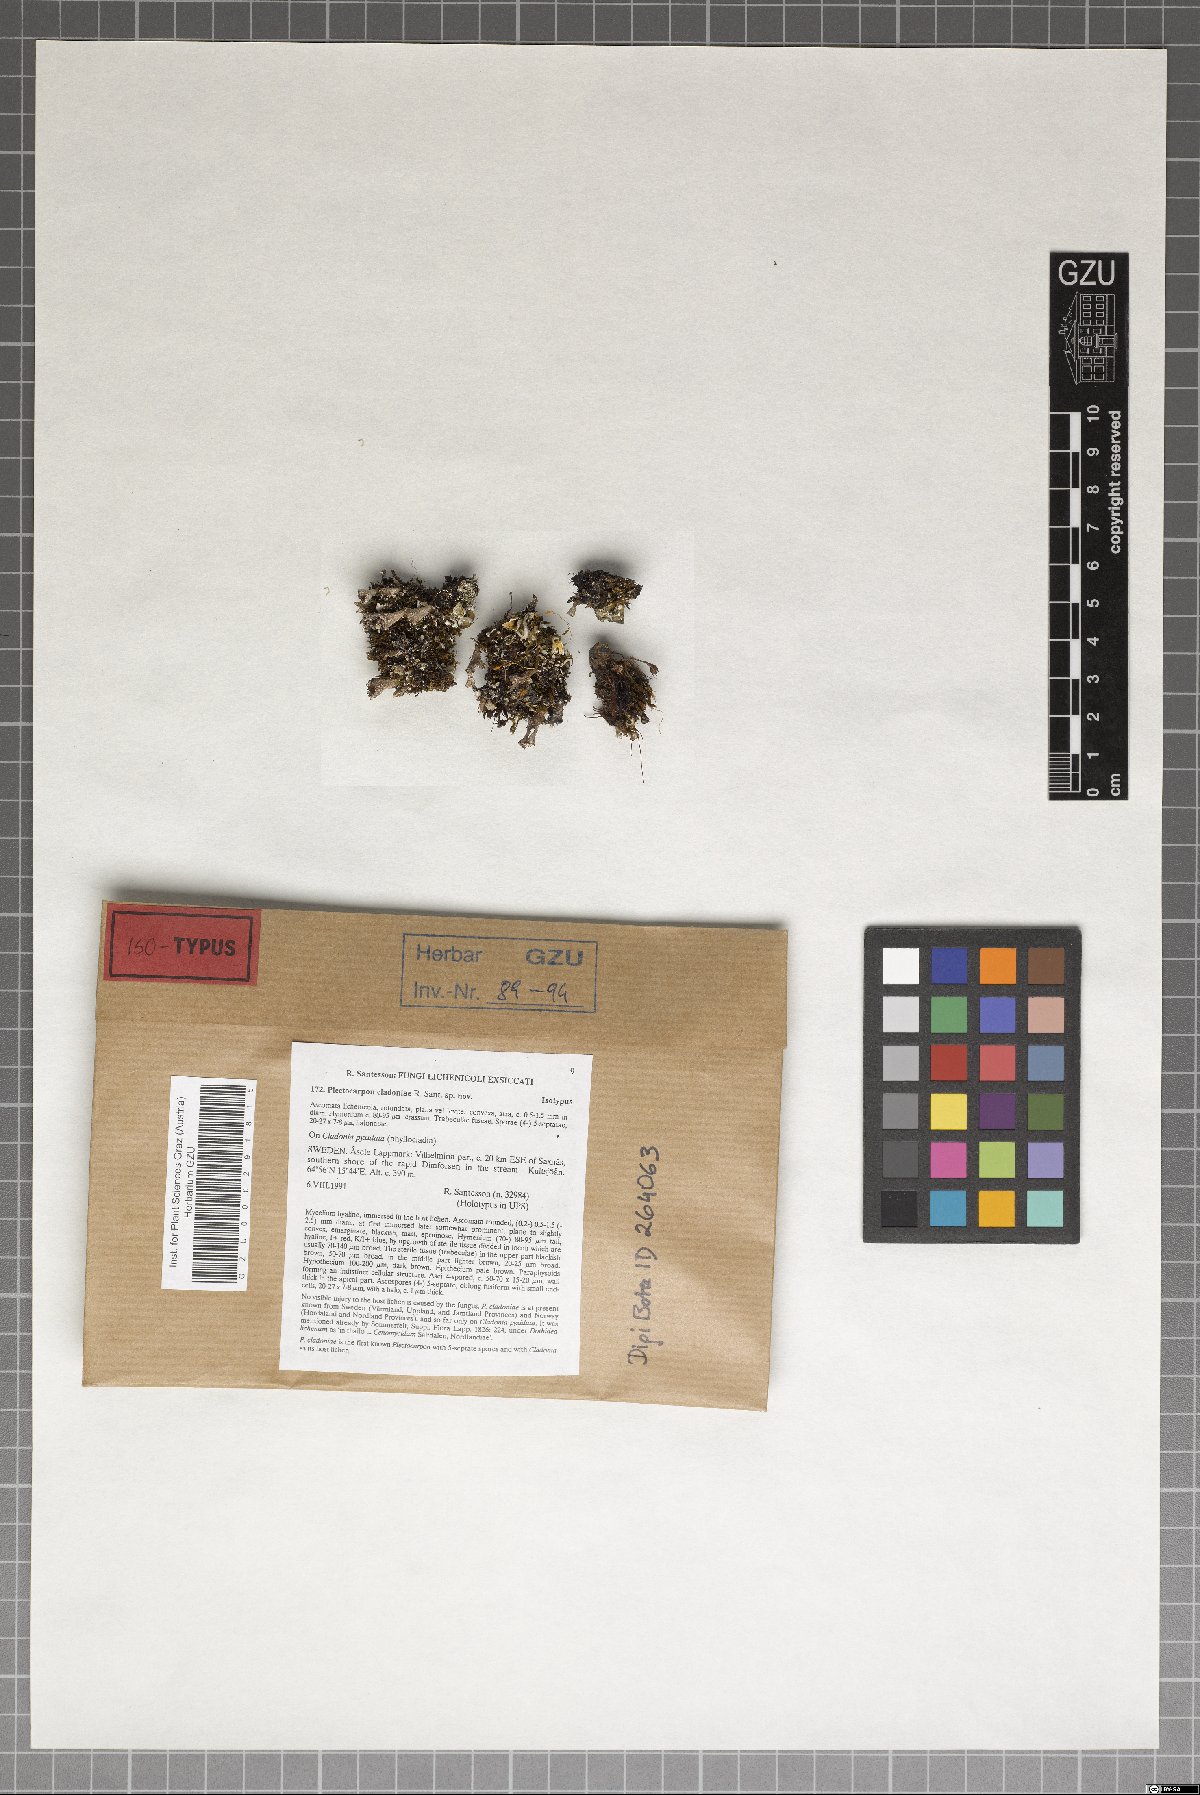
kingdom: Fungi
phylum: Ascomycota
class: Arthoniomycetes
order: Arthoniales
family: Lecanographaceae
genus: Plectocarpon
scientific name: Plectocarpon cladoniae
